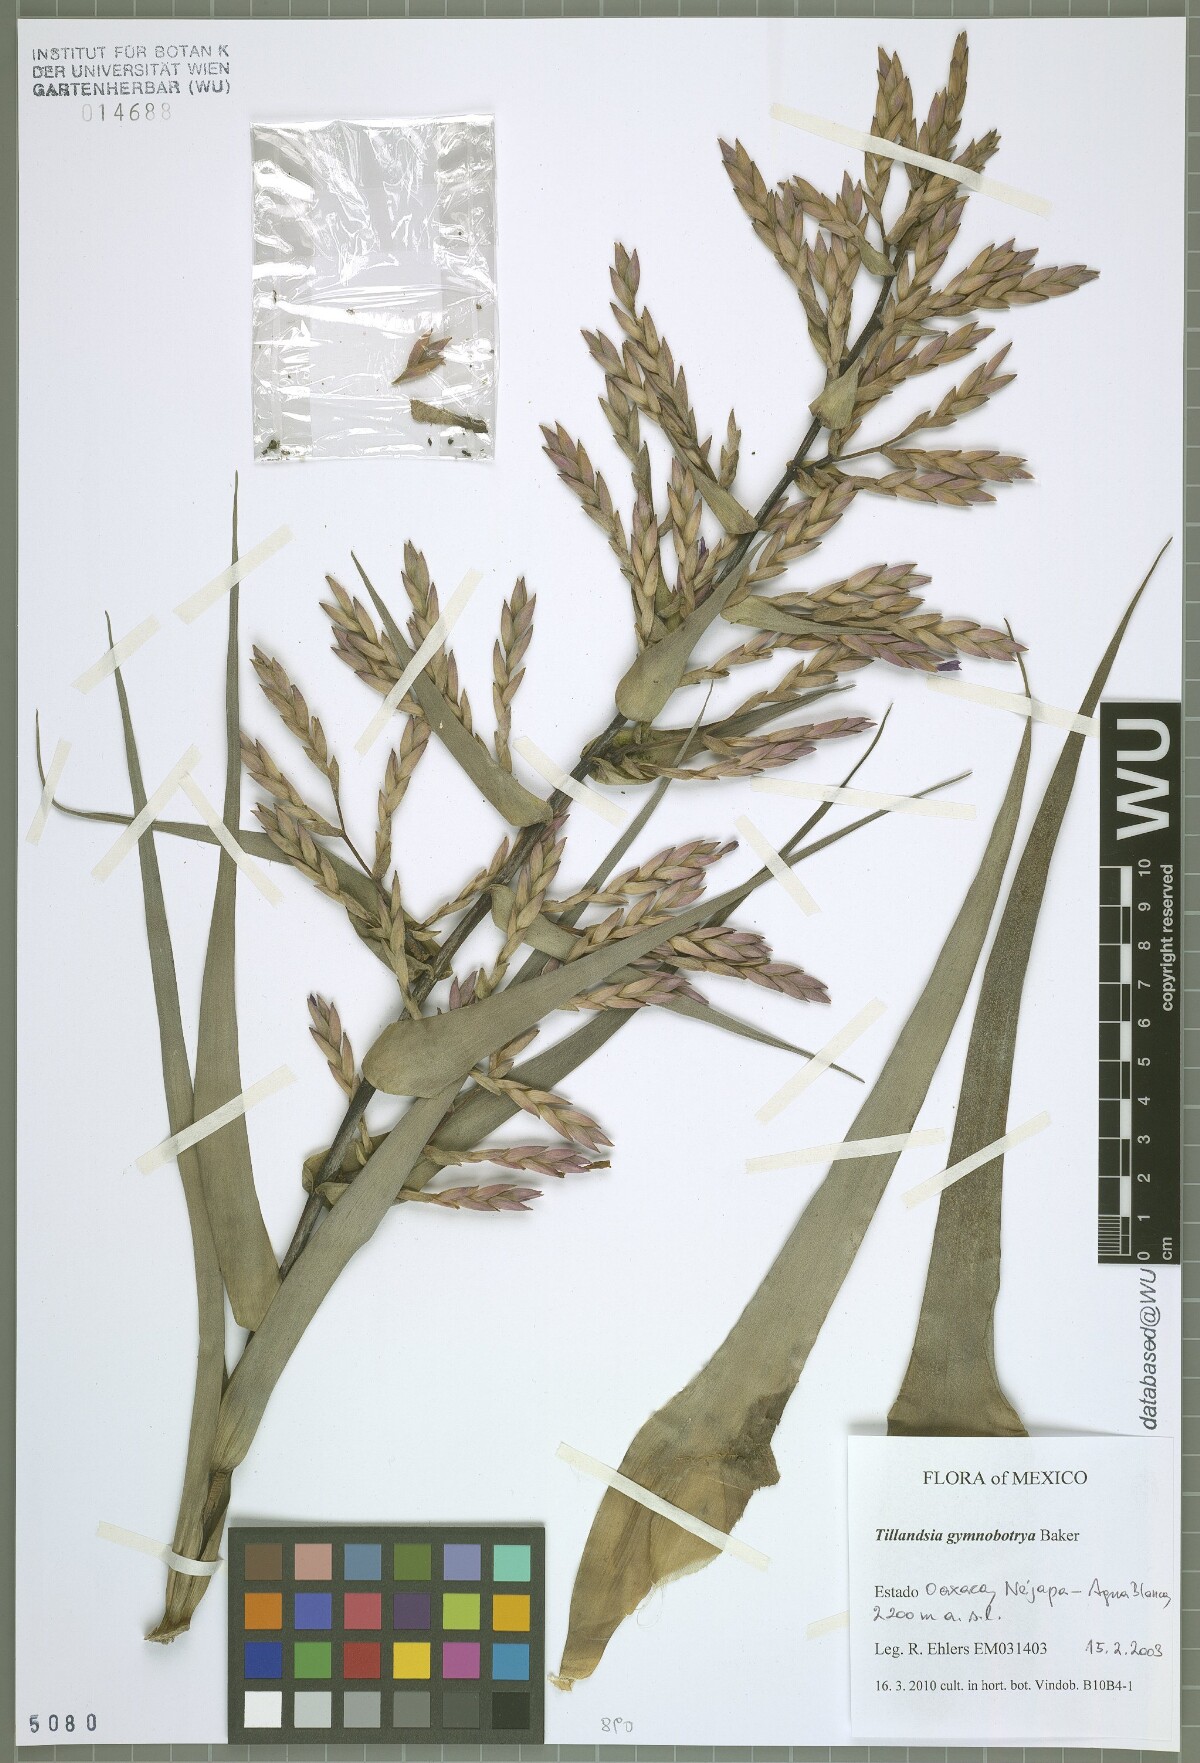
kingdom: Plantae
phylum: Tracheophyta
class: Liliopsida
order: Poales
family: Bromeliaceae
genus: Tillandsia
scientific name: Tillandsia gymnobotrya
